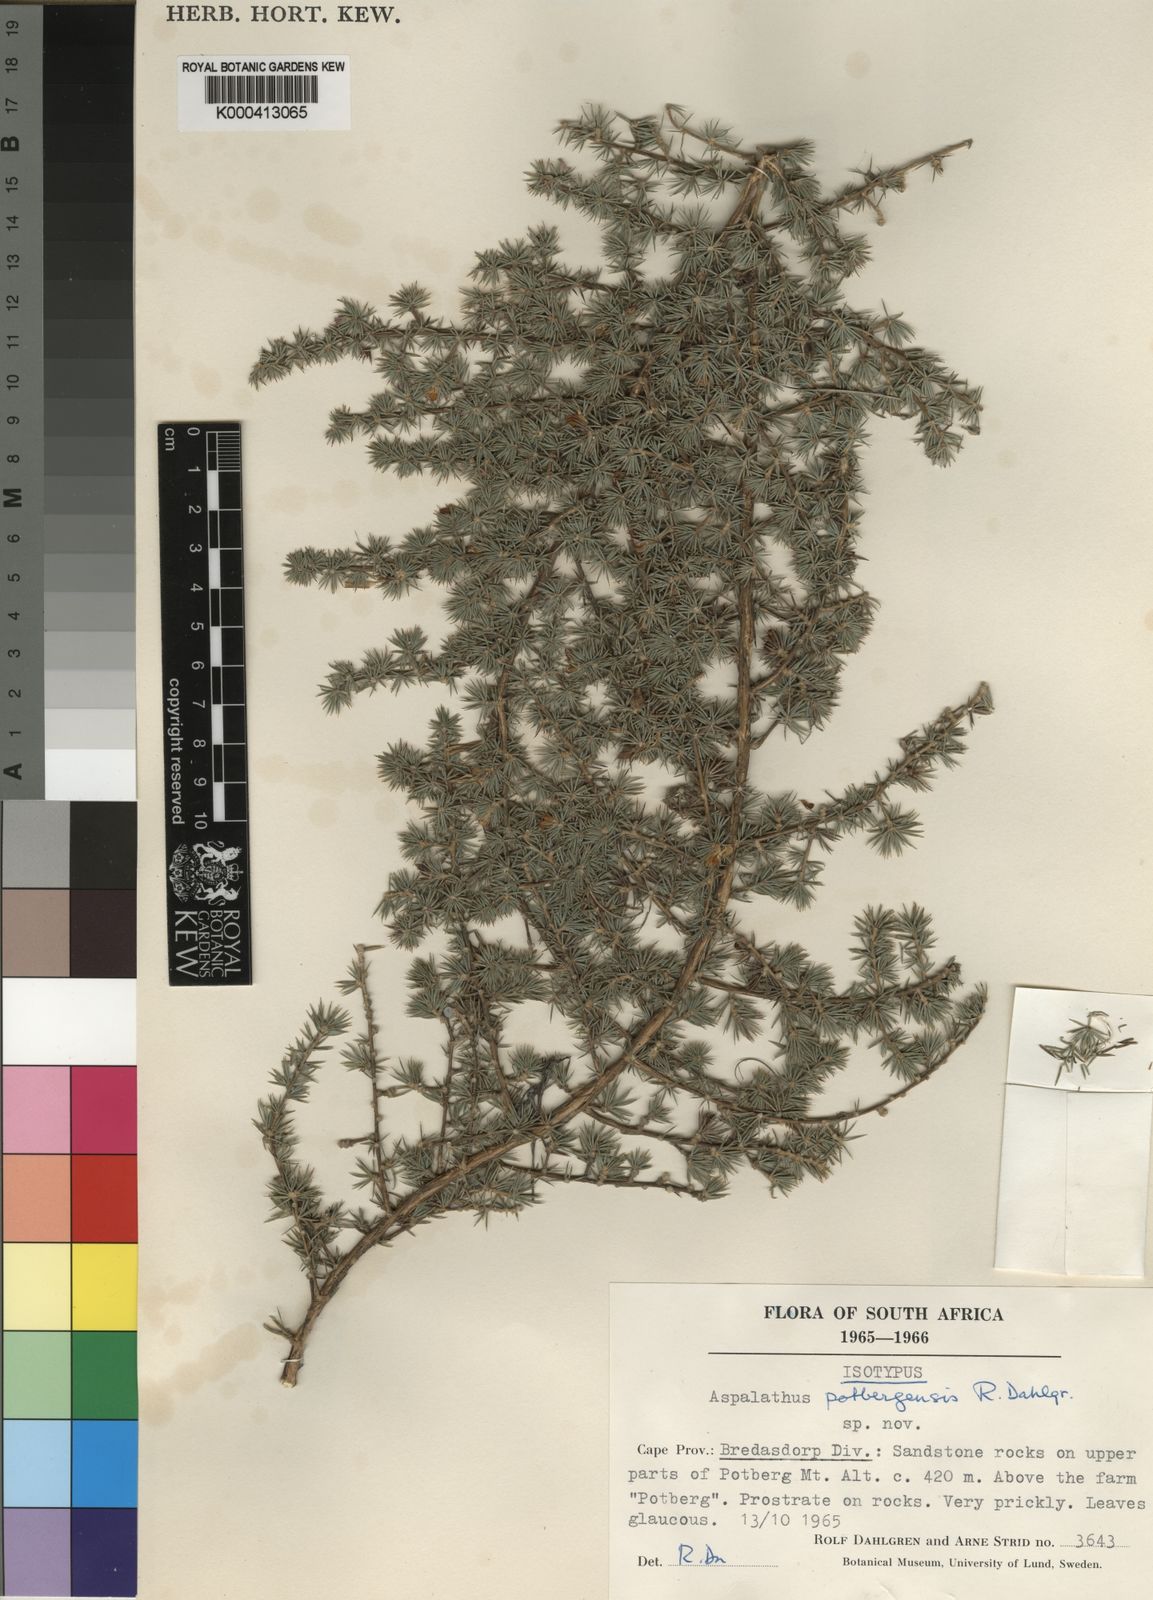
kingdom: Plantae
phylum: Tracheophyta
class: Magnoliopsida
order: Fabales
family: Fabaceae
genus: Aspalathus
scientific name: Aspalathus potbergensis
